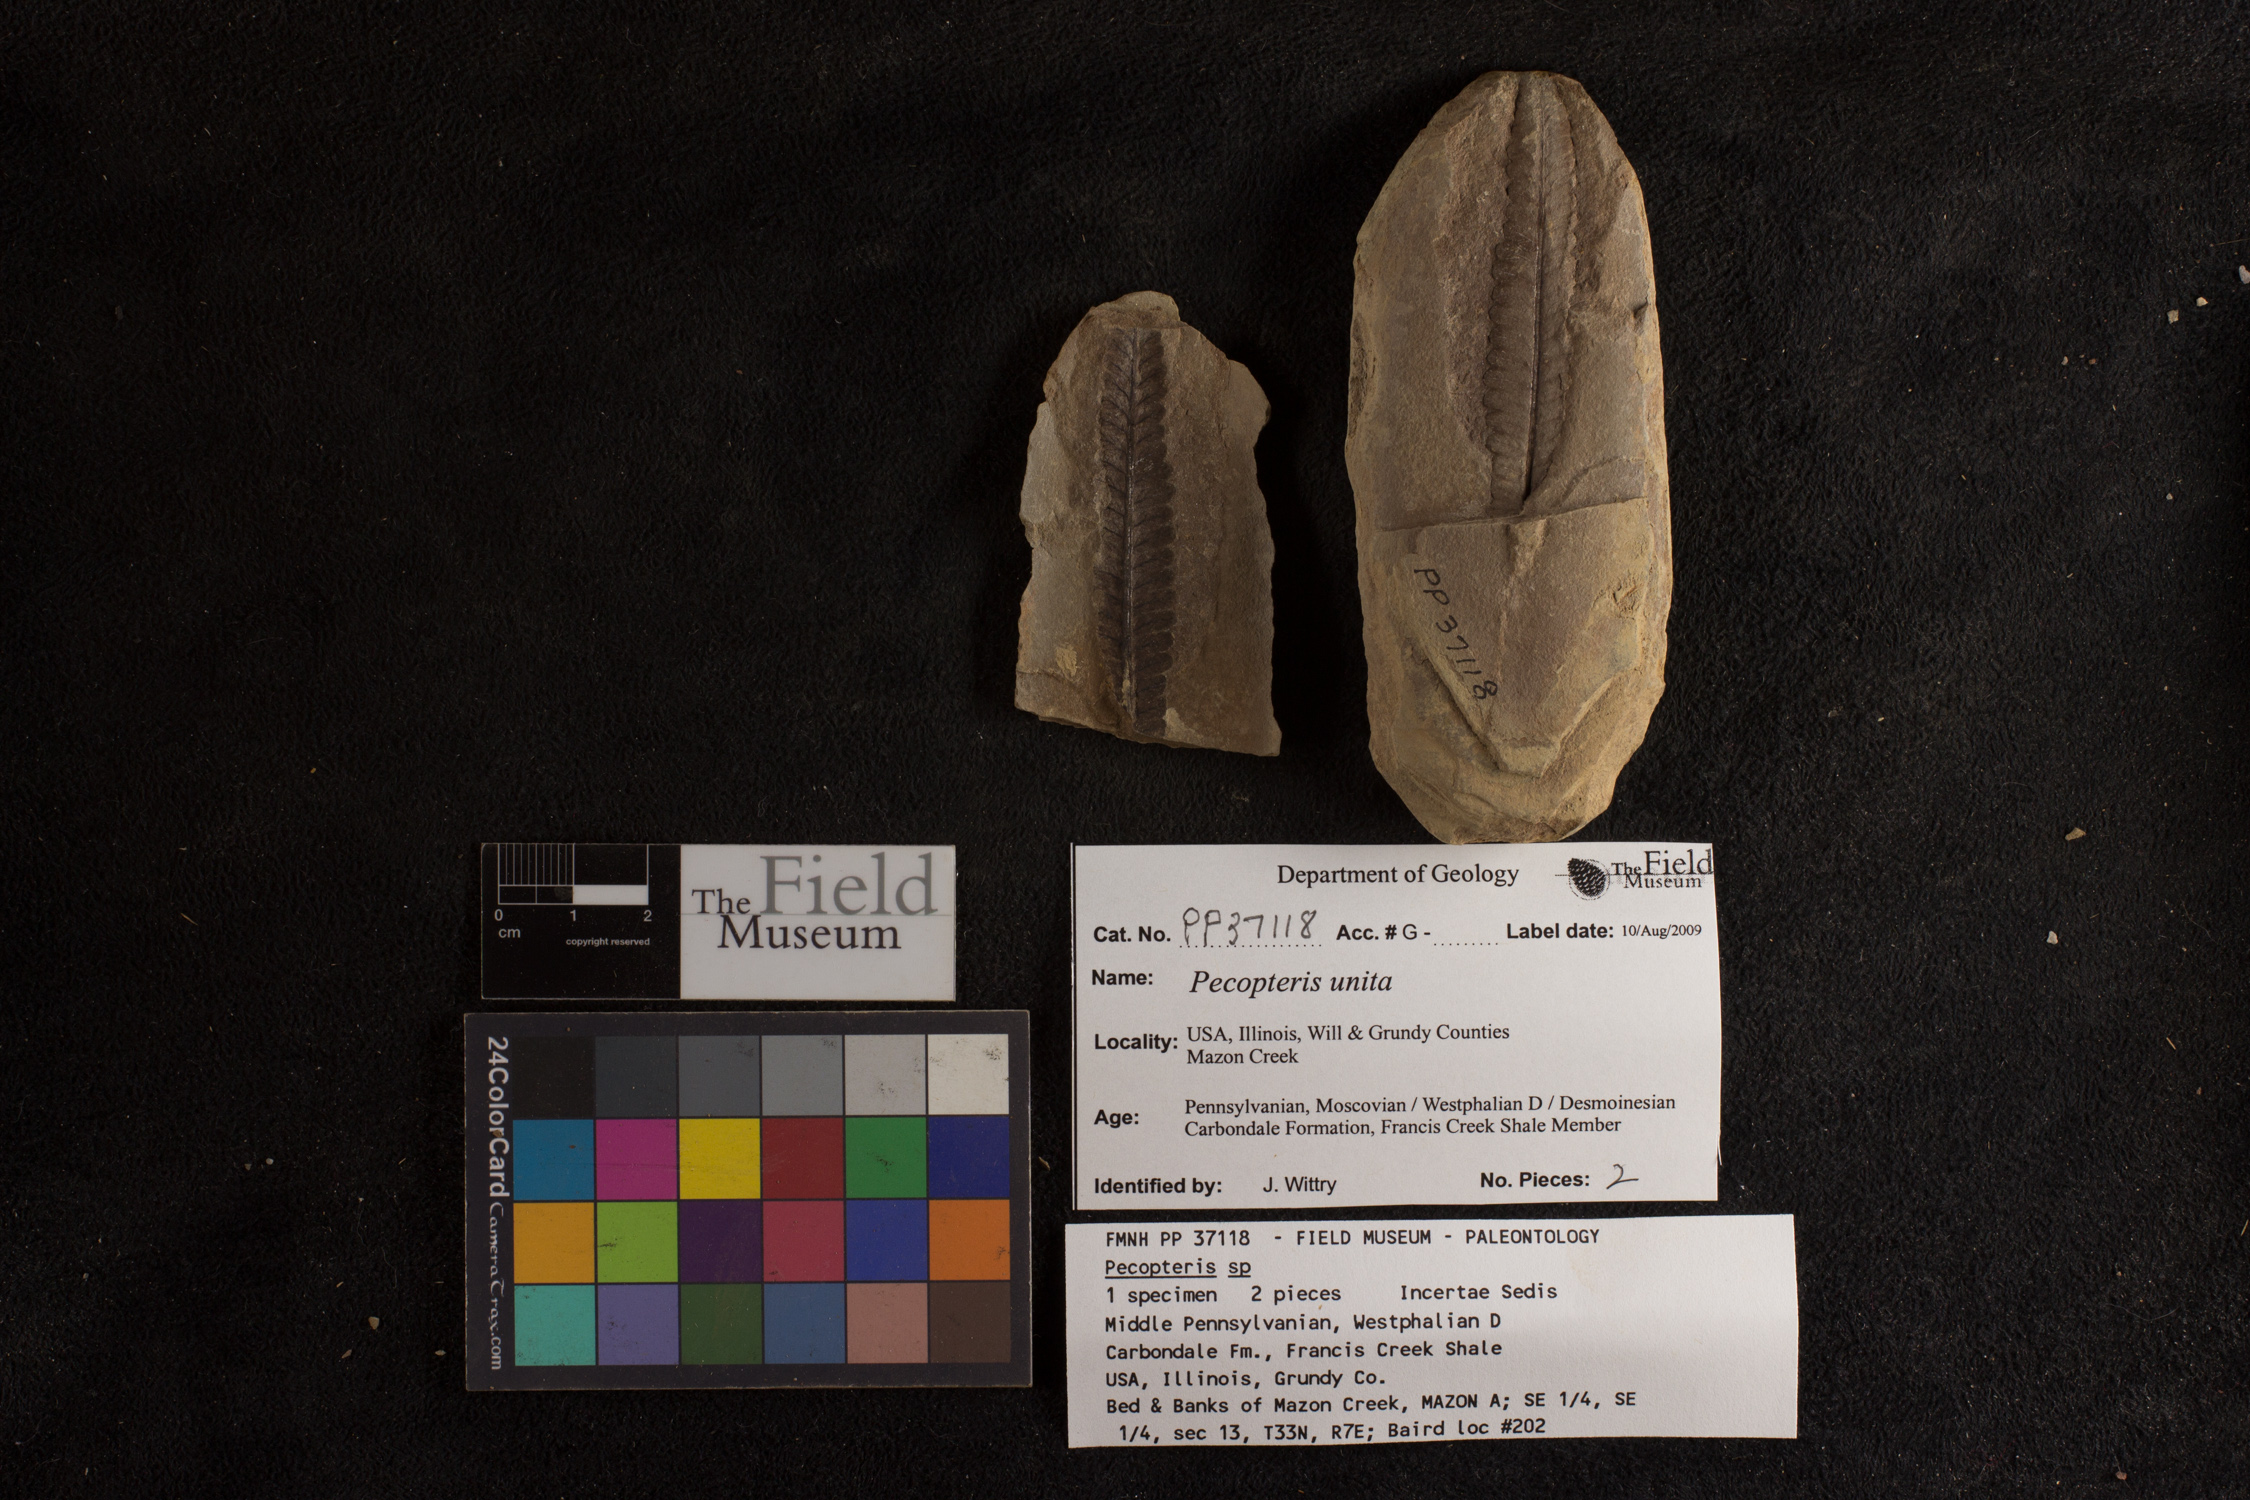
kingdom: Plantae
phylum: Tracheophyta
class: Polypodiopsida
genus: Diplazites
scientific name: Diplazites
